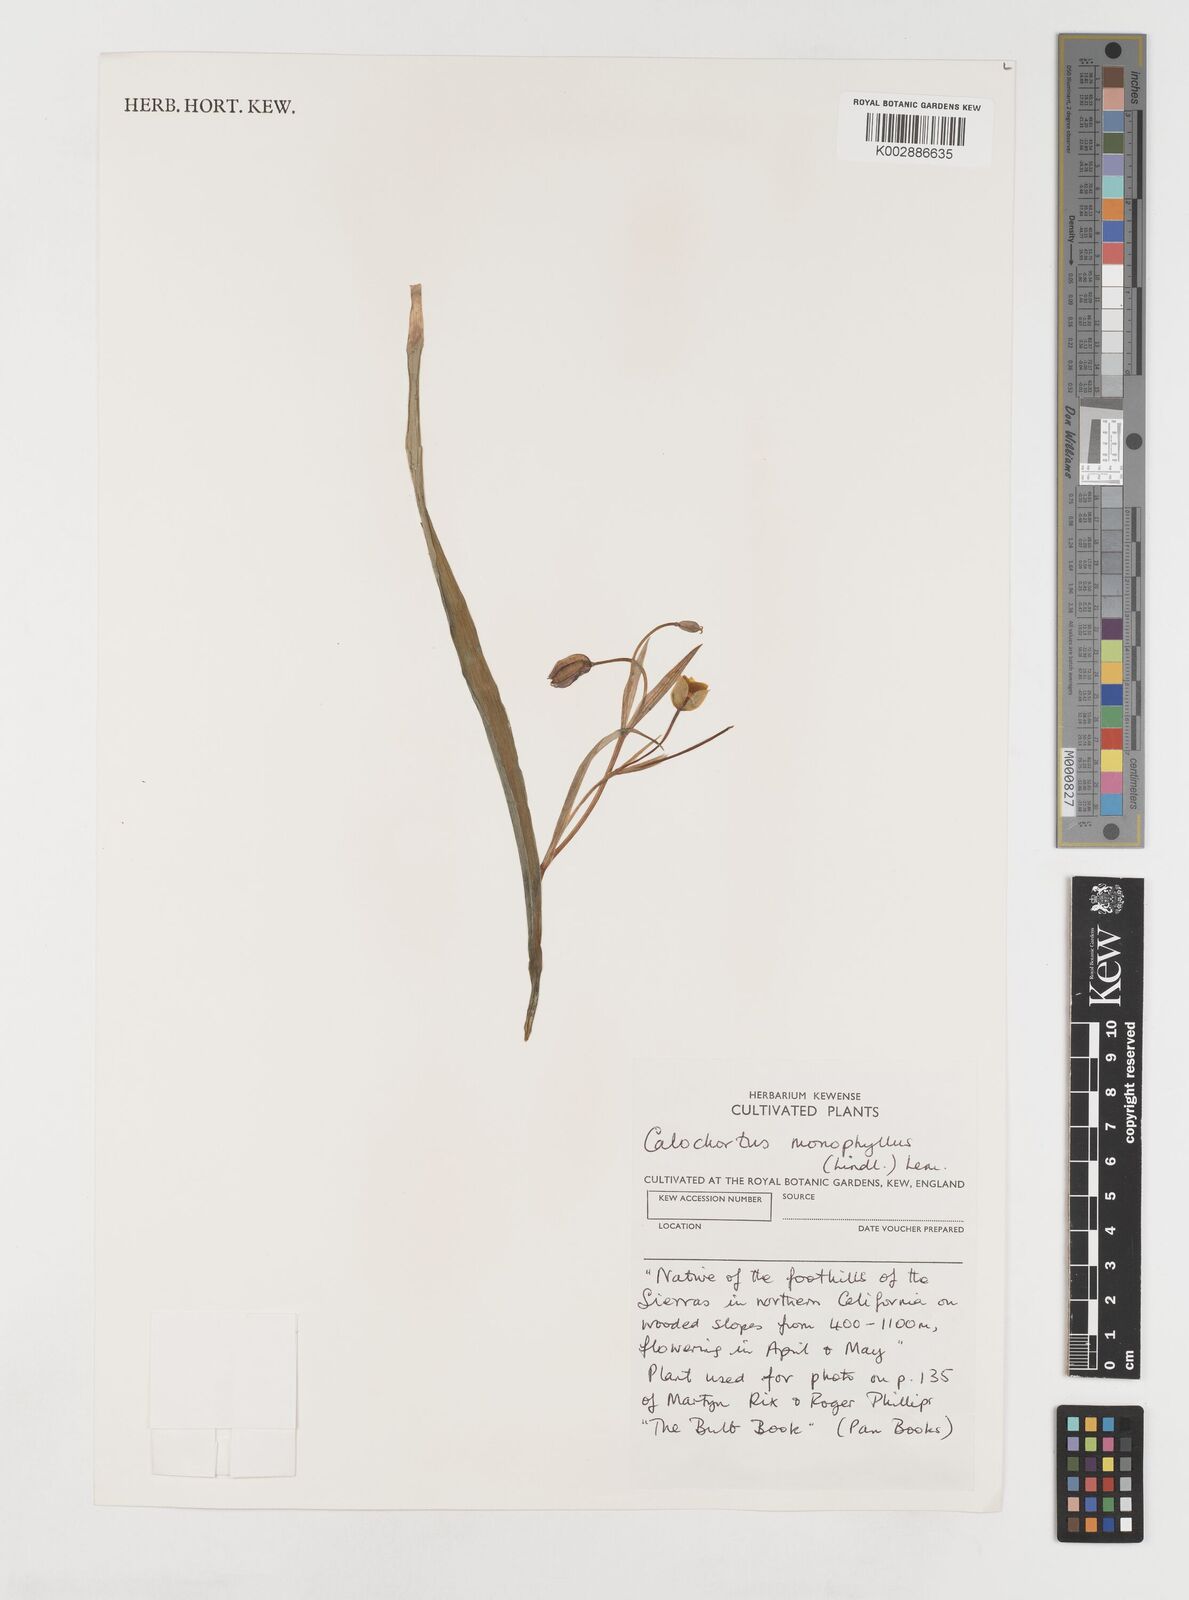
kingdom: Plantae
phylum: Tracheophyta
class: Liliopsida
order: Liliales
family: Liliaceae
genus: Calochortus
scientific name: Calochortus monophyllus
